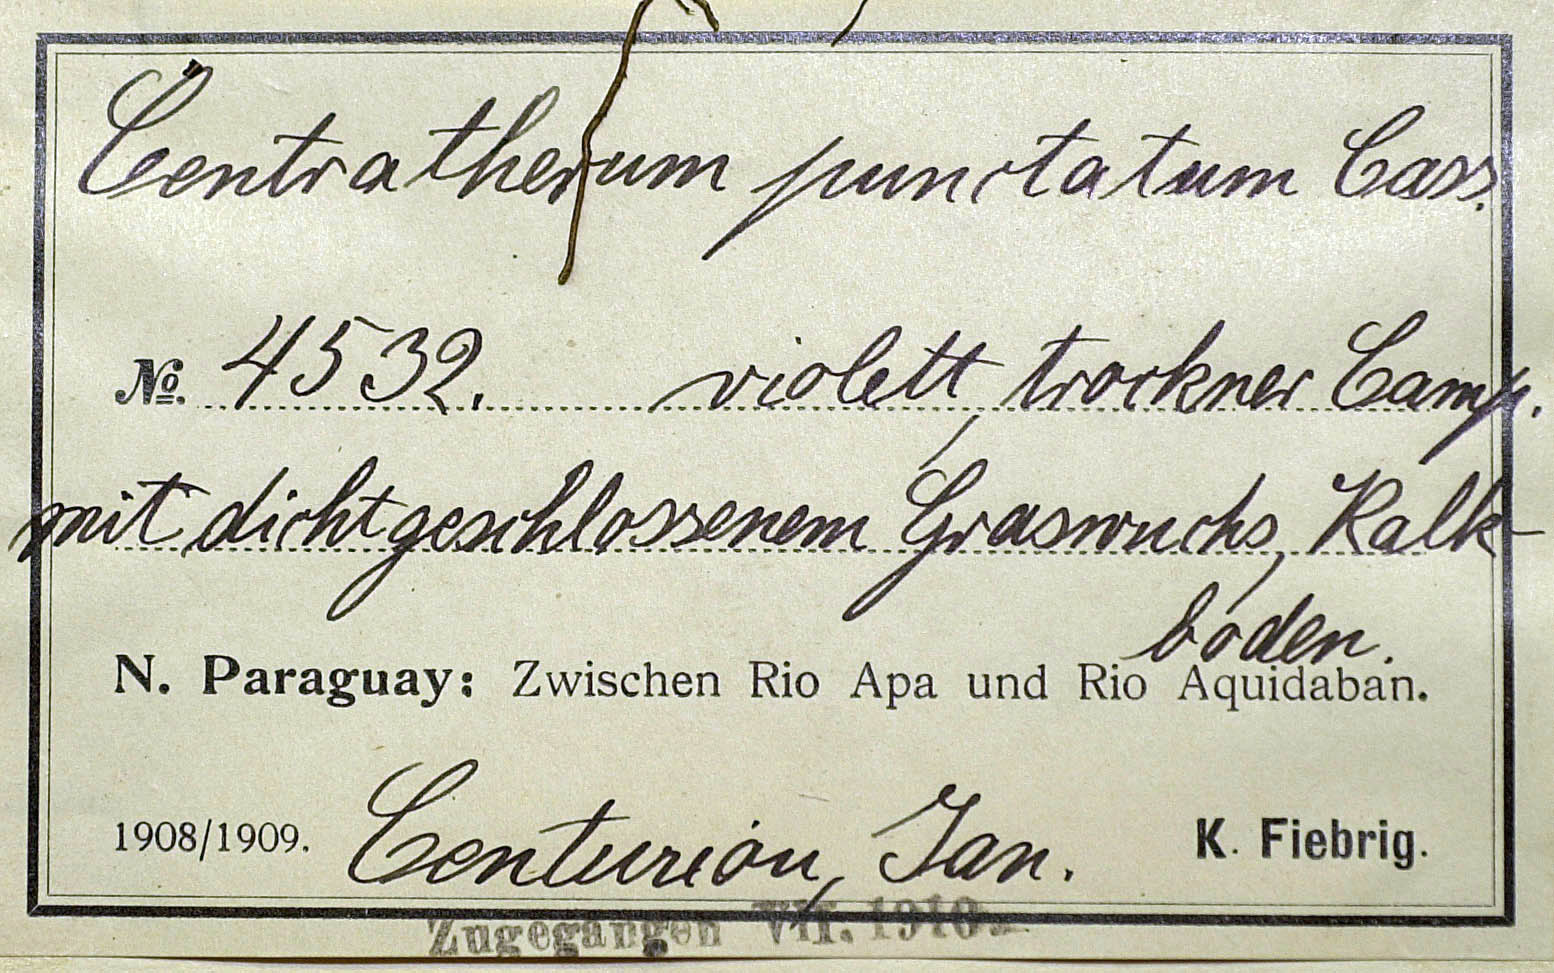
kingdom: Plantae
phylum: Tracheophyta
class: Magnoliopsida
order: Asterales
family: Asteraceae
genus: Centratherum
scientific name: Centratherum punctatum
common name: Larkdaisy
